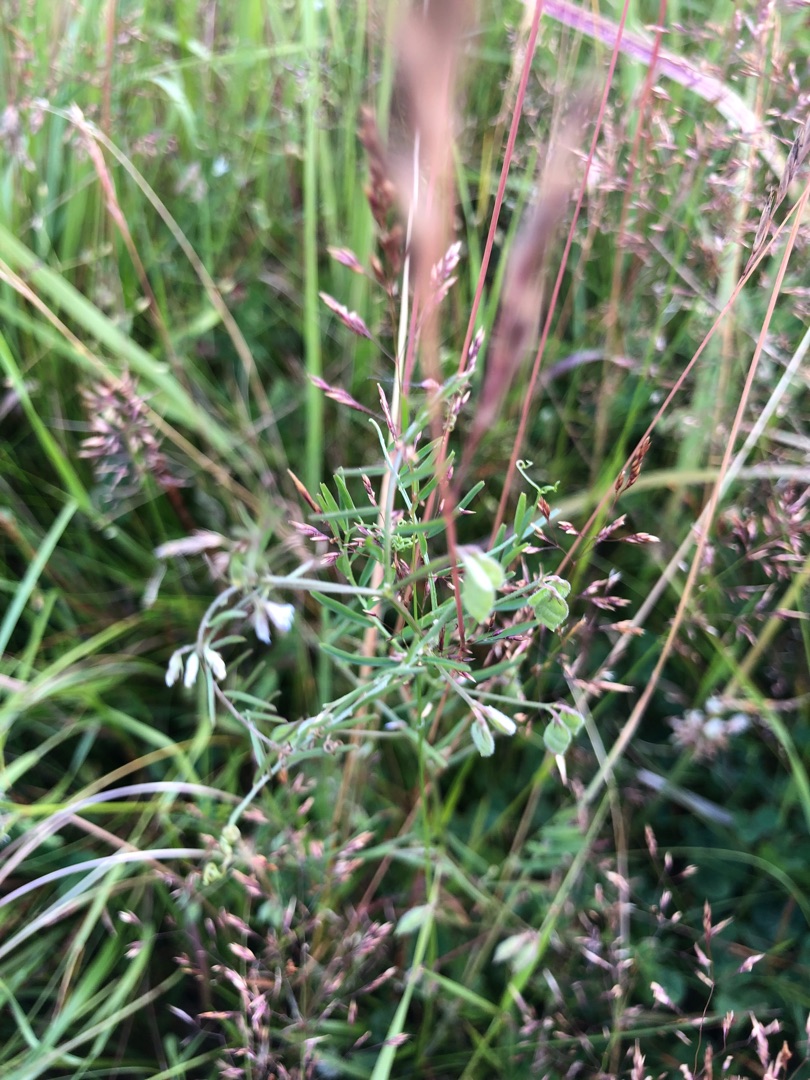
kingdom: Plantae
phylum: Tracheophyta
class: Magnoliopsida
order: Fabales
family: Fabaceae
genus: Vicia
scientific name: Vicia hirsuta
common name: Tofrøet vikke
